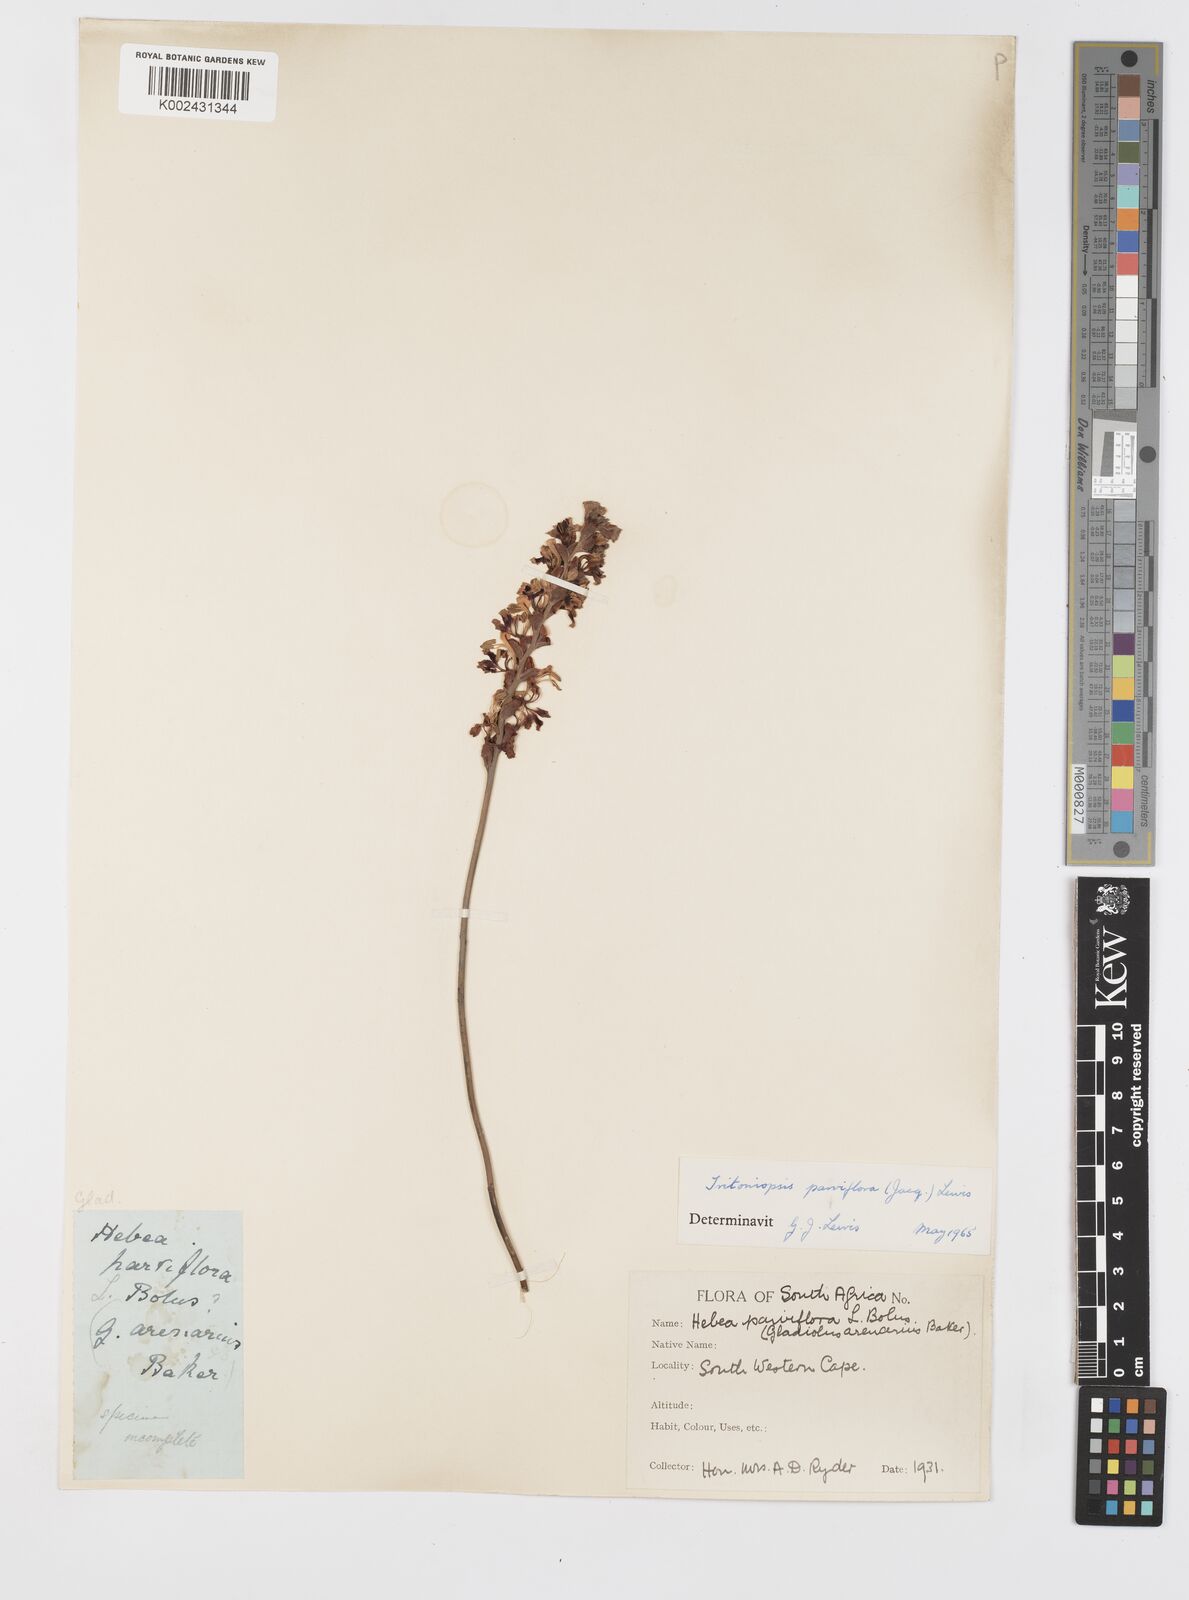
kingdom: Plantae
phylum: Tracheophyta
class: Liliopsida
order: Asparagales
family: Iridaceae
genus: Tritoniopsis
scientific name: Tritoniopsis parviflora
